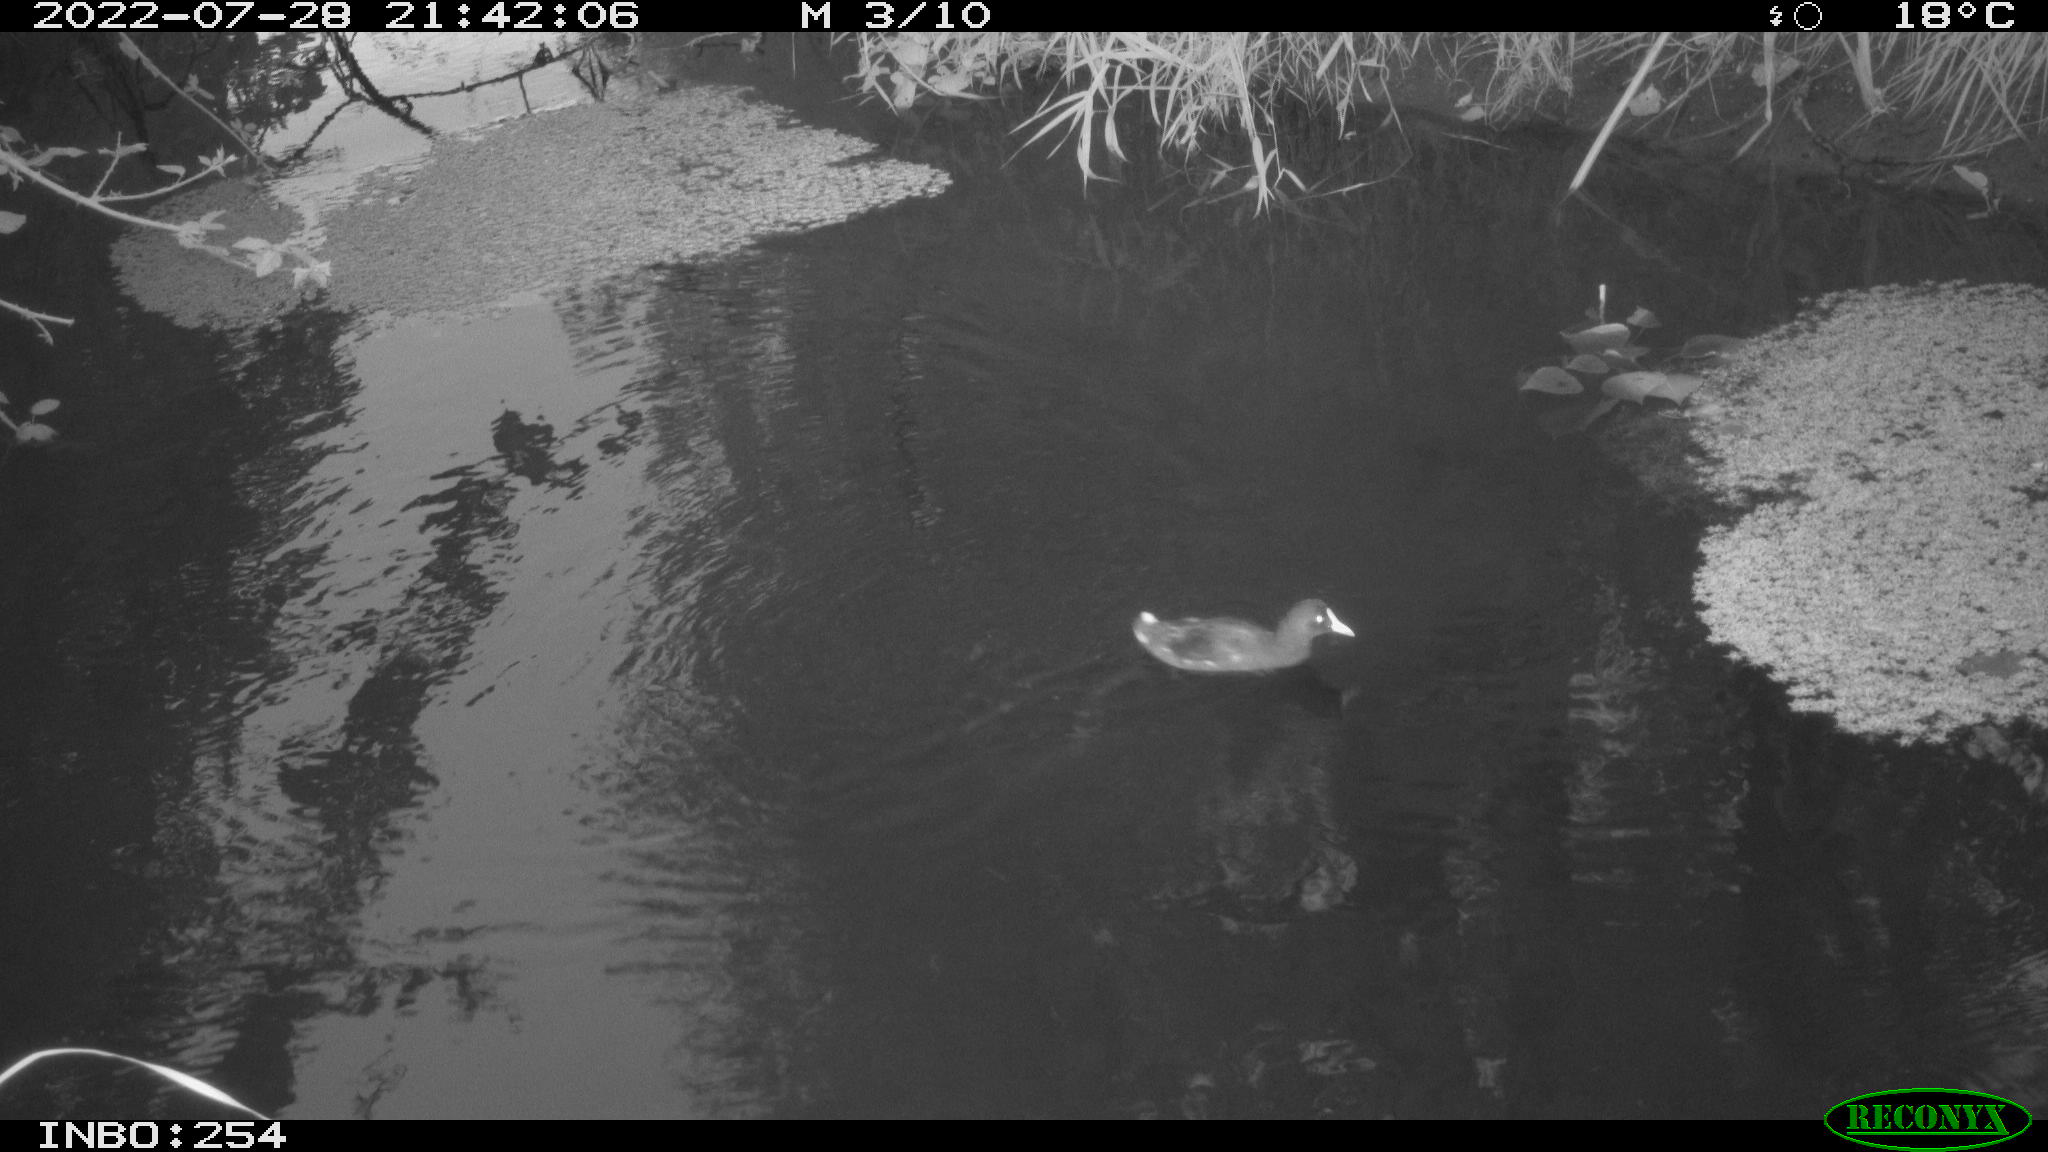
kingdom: Animalia
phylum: Chordata
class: Aves
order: Gruiformes
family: Rallidae
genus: Gallinula
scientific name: Gallinula chloropus
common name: Common moorhen
